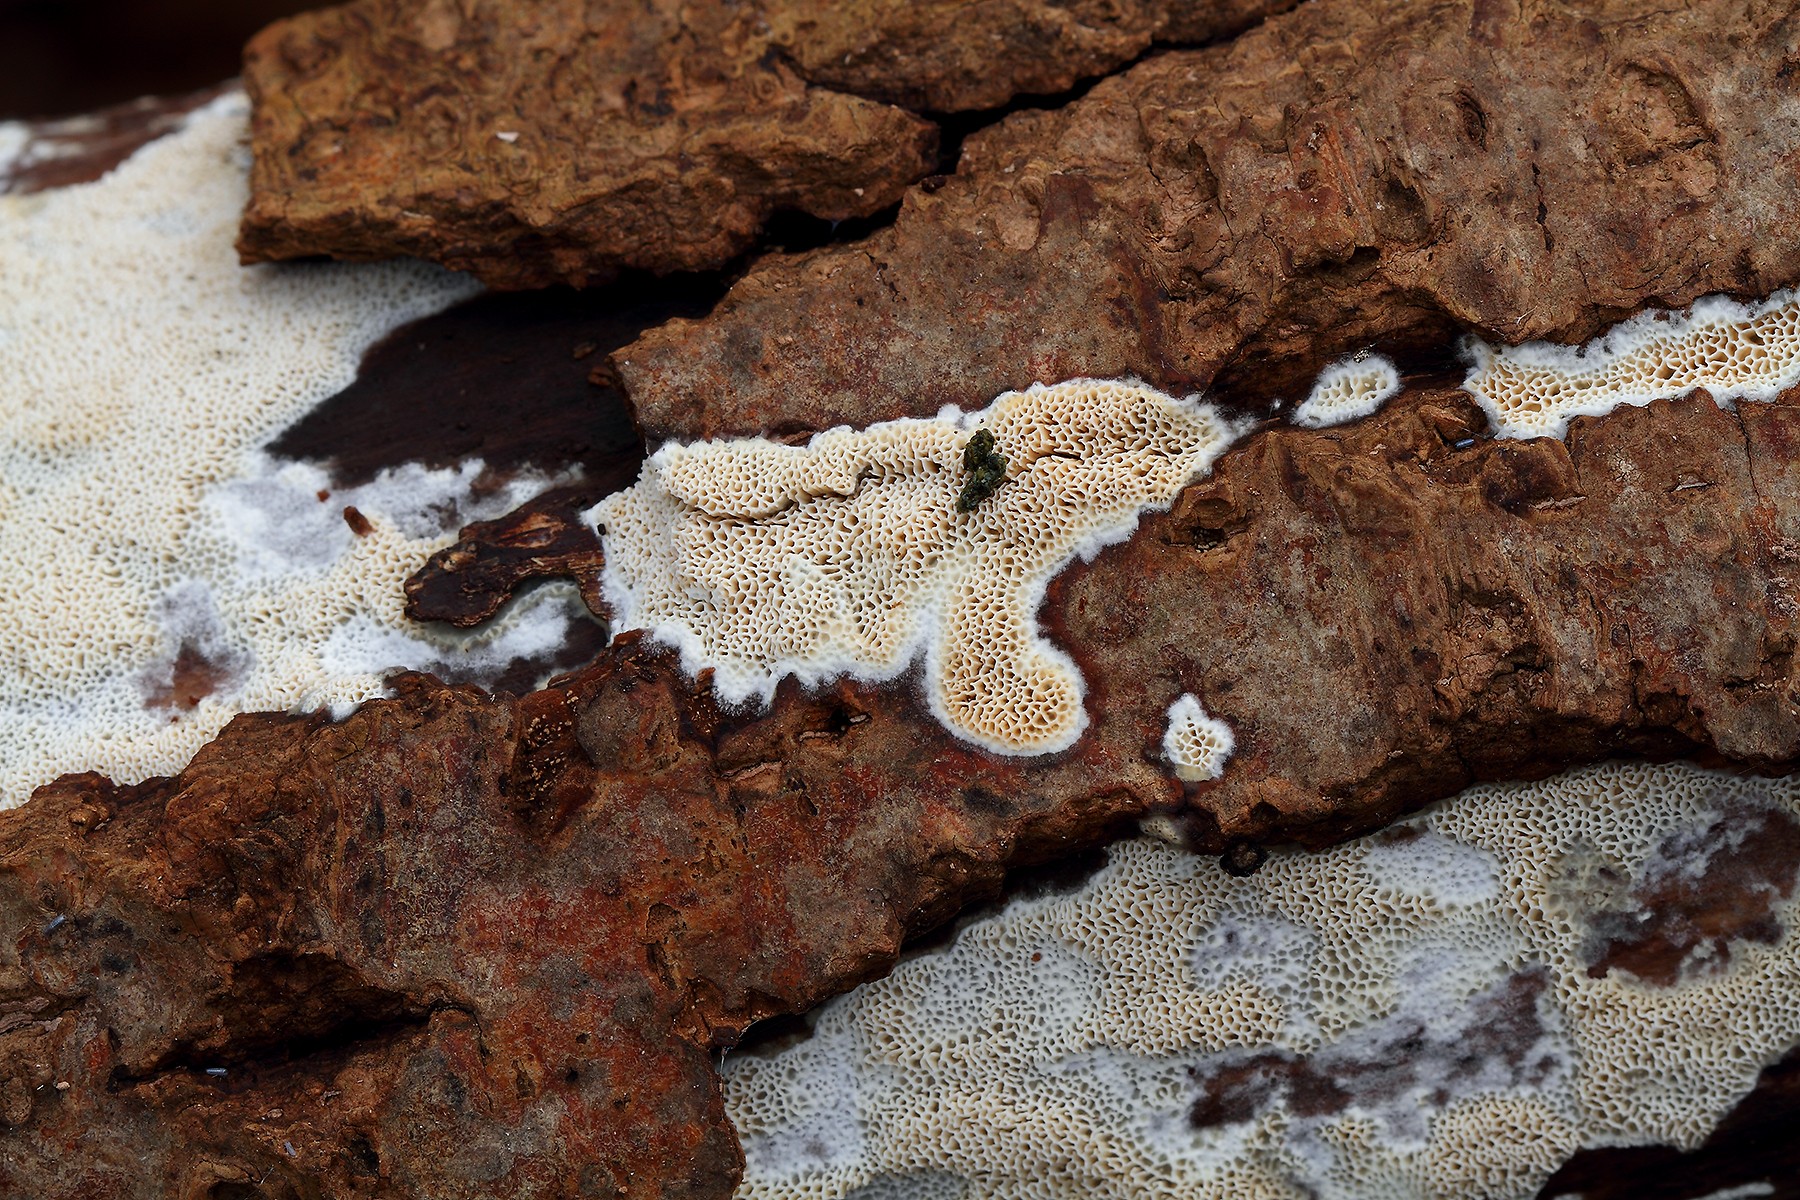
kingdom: Fungi
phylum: Basidiomycota
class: Agaricomycetes
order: Polyporales
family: Cerrenaceae
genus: Raduliporus
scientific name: Raduliporus aneirinus
